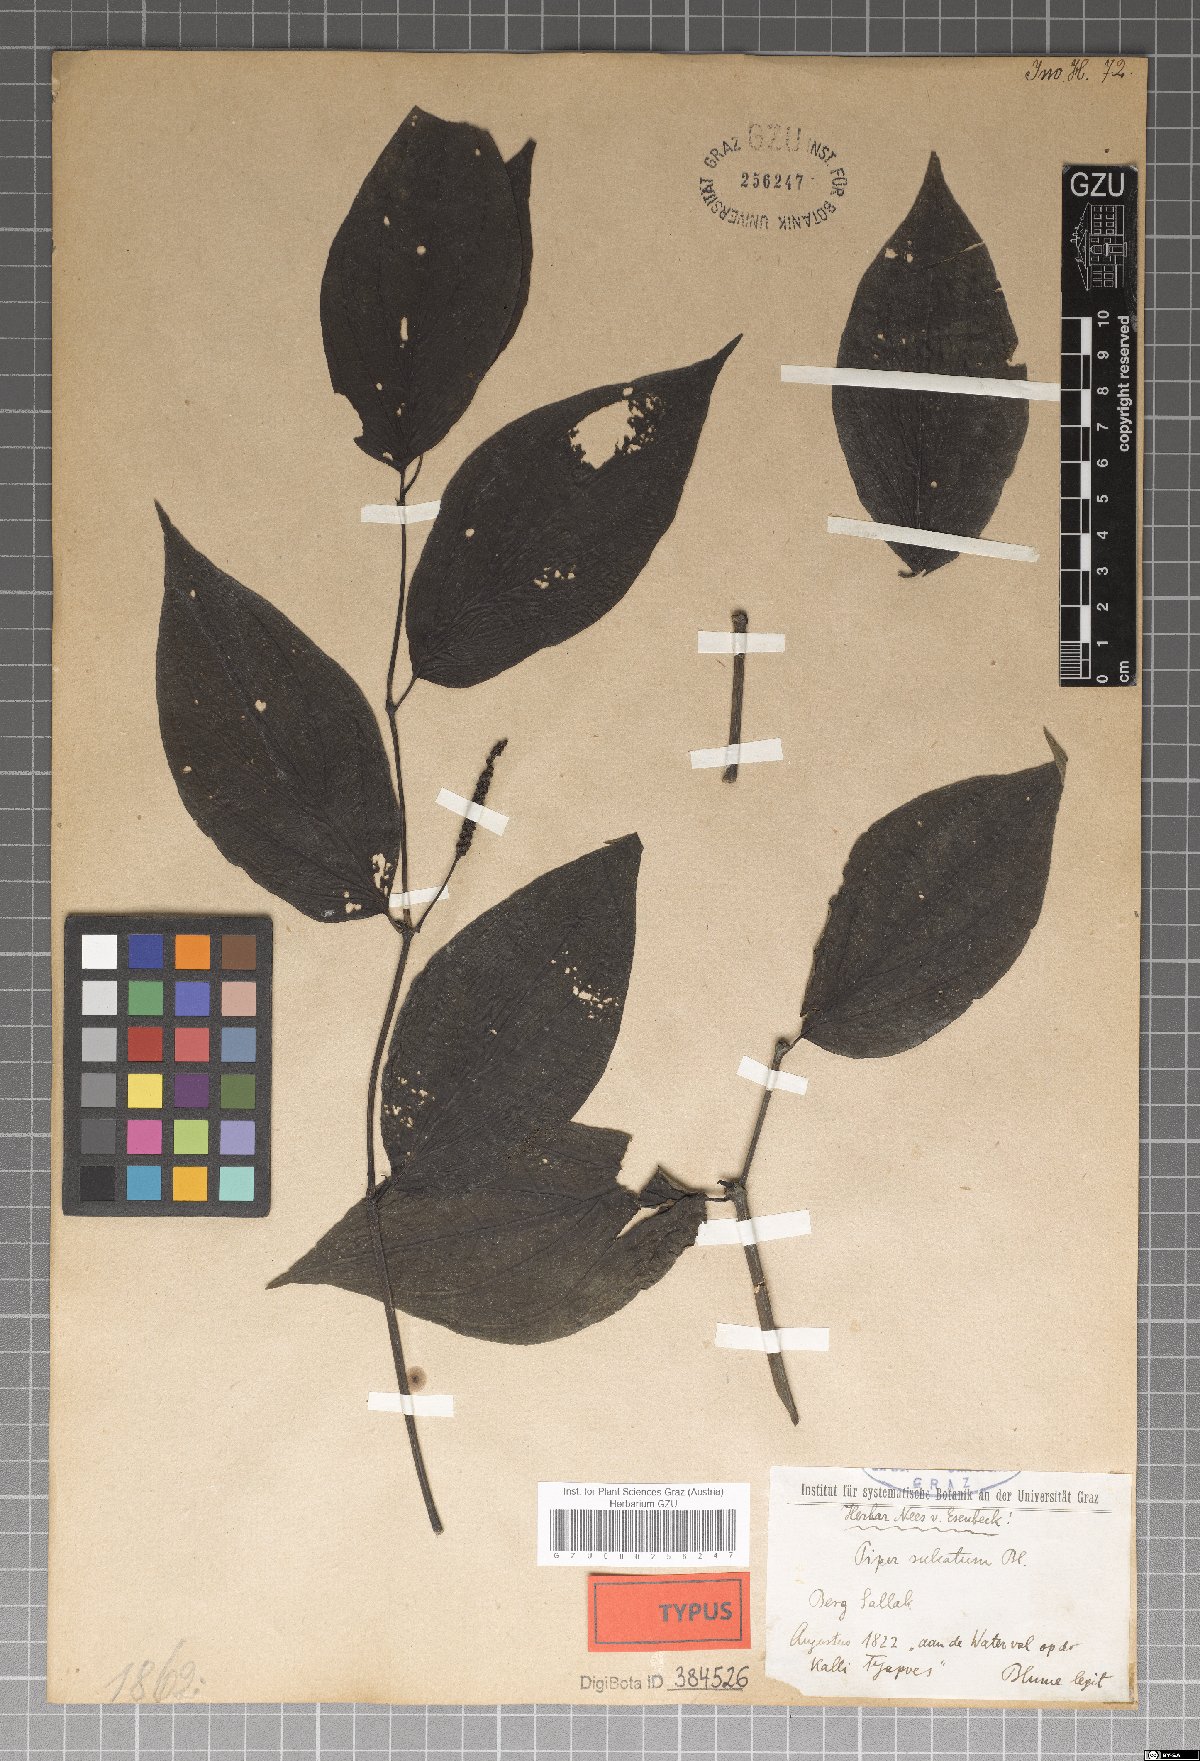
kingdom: Plantae
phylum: Tracheophyta
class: Magnoliopsida
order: Piperales
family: Piperaceae
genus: Piper
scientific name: Piper sulcatum
